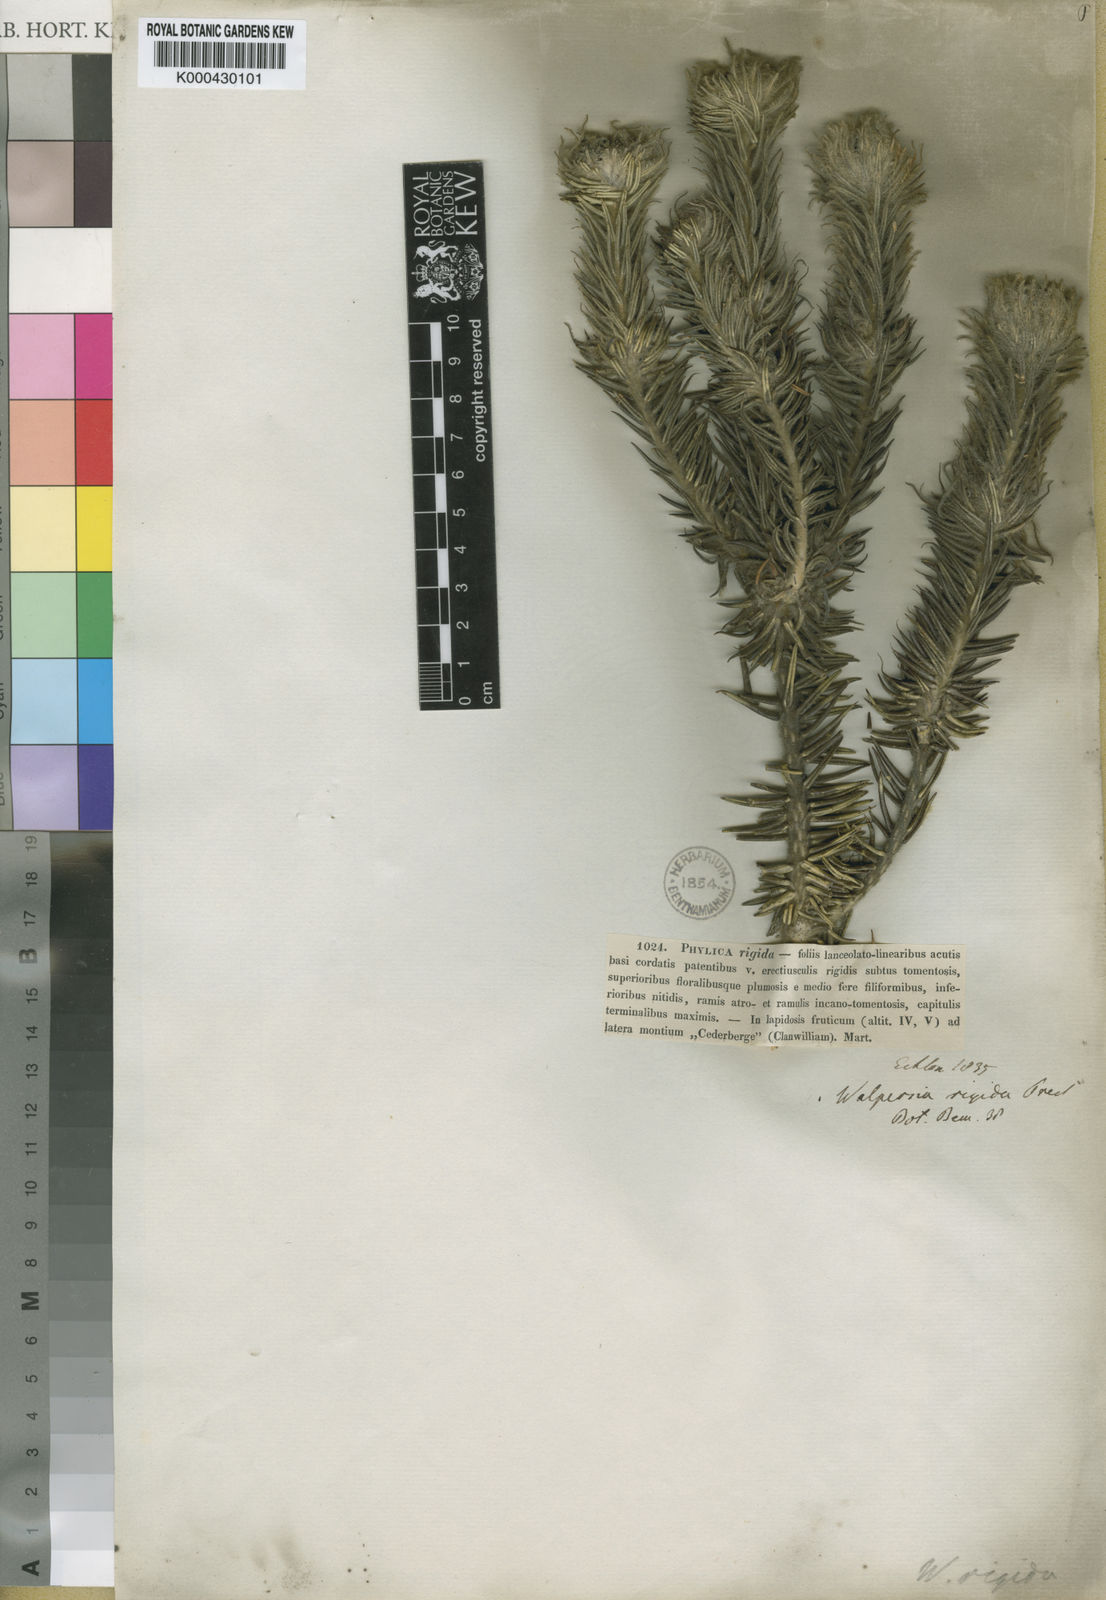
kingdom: Plantae
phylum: Tracheophyta
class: Magnoliopsida
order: Rosales
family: Rhamnaceae
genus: Phylica
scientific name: Phylica rigida
